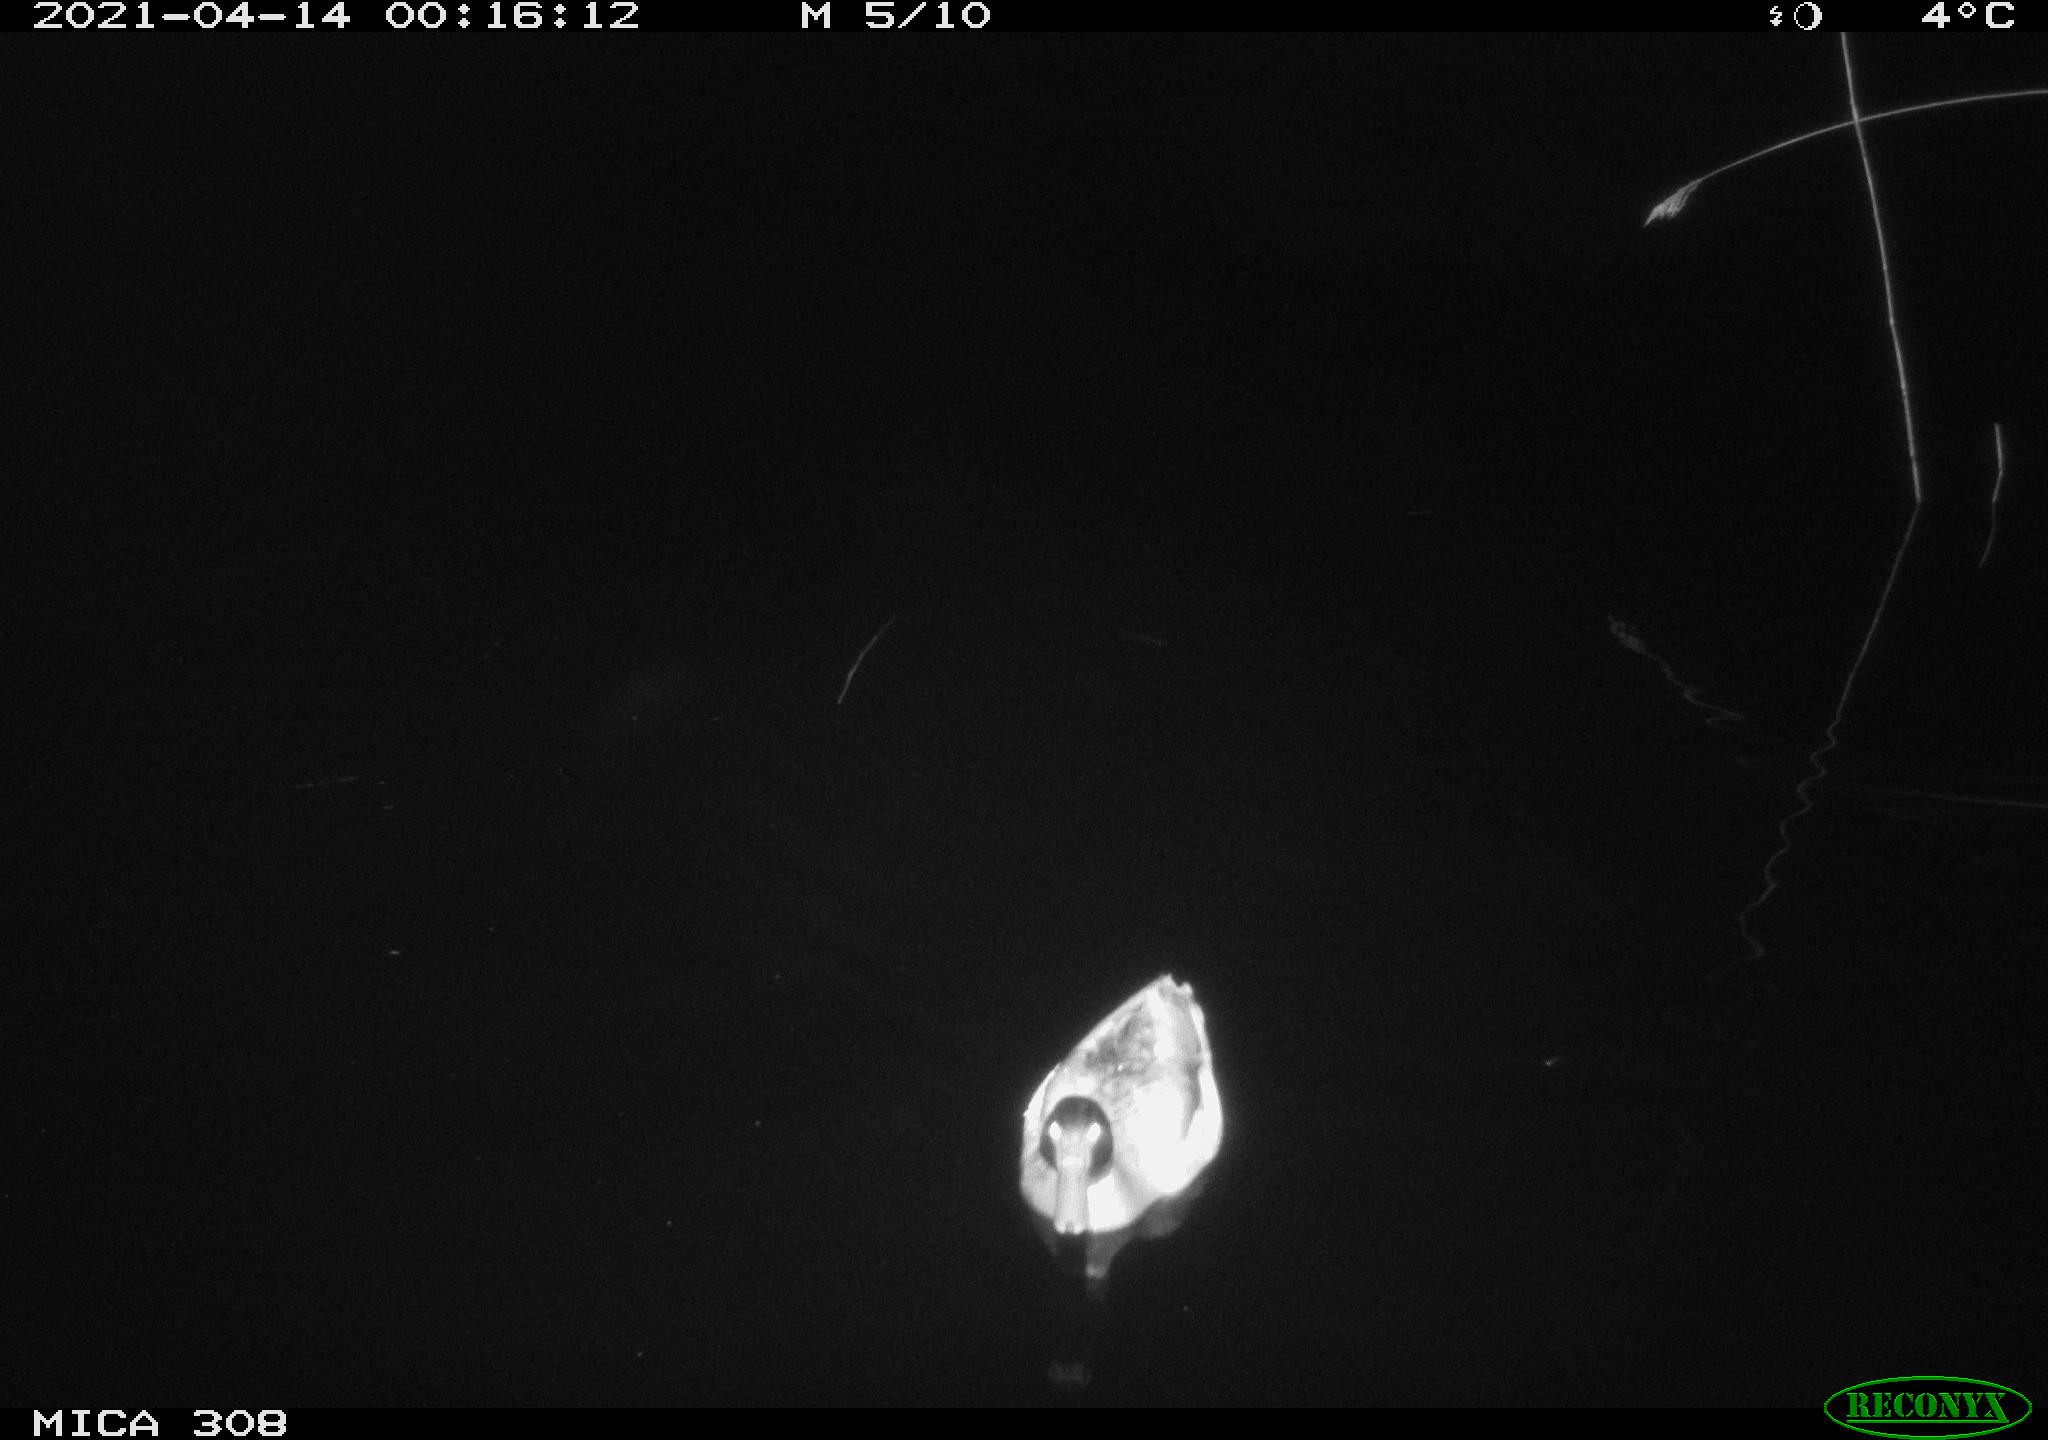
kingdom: Animalia
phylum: Chordata
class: Aves
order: Anseriformes
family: Anatidae
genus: Anas
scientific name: Anas platyrhynchos
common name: Mallard
